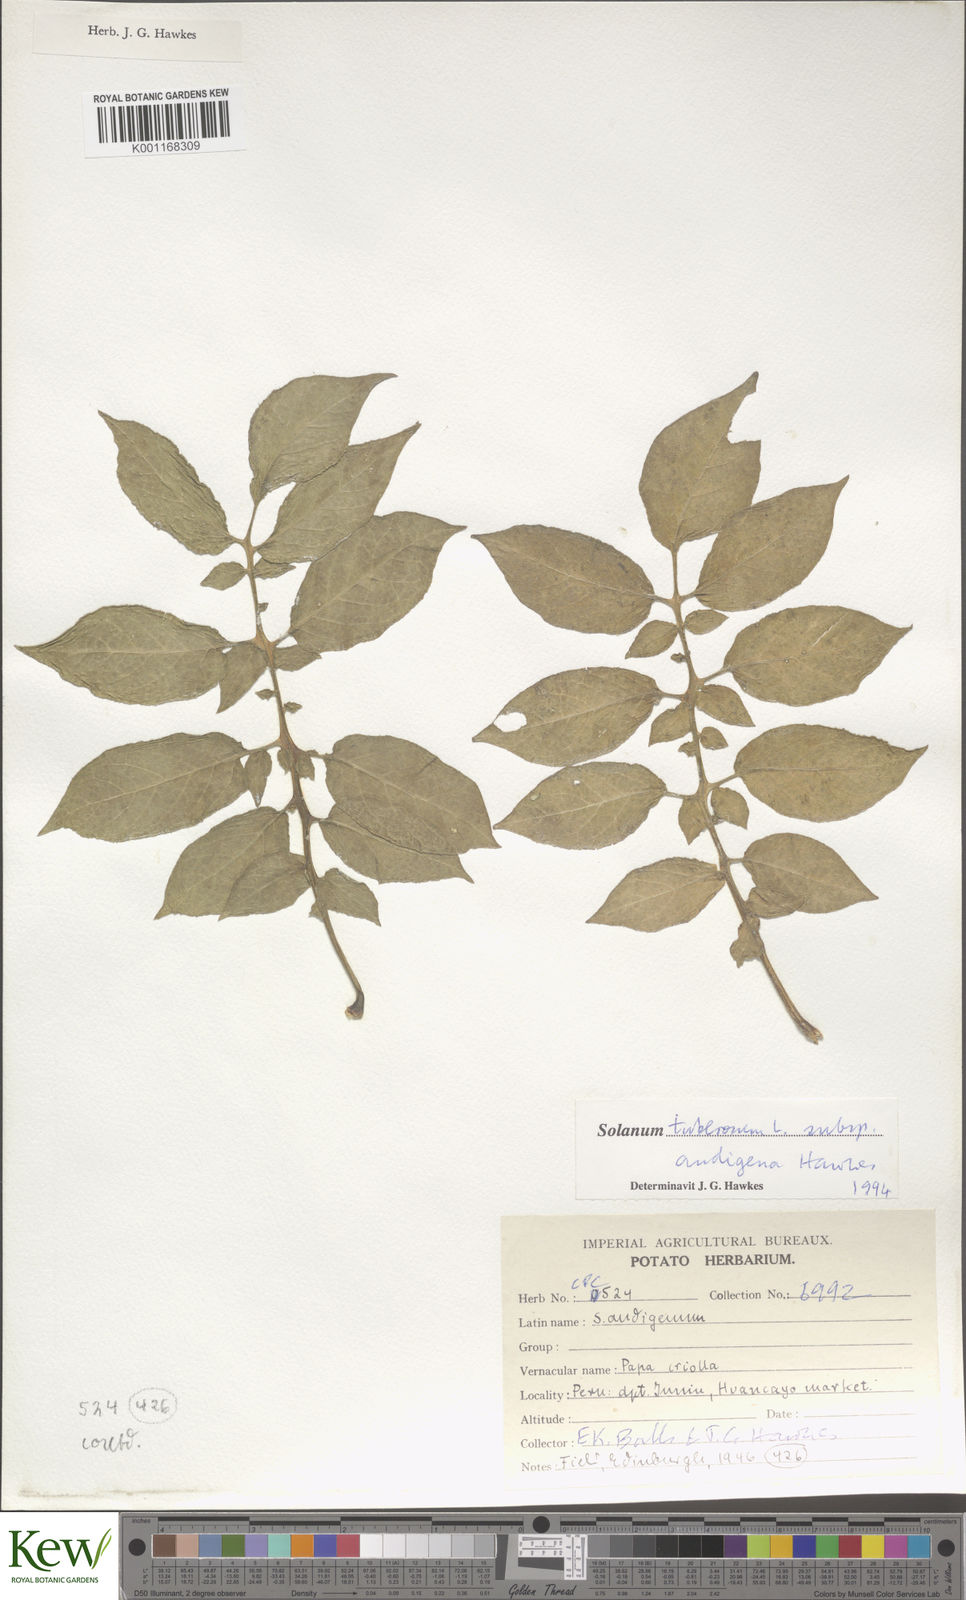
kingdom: Plantae
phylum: Tracheophyta
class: Magnoliopsida
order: Solanales
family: Solanaceae
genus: Solanum
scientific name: Solanum tuberosum
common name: Potato
